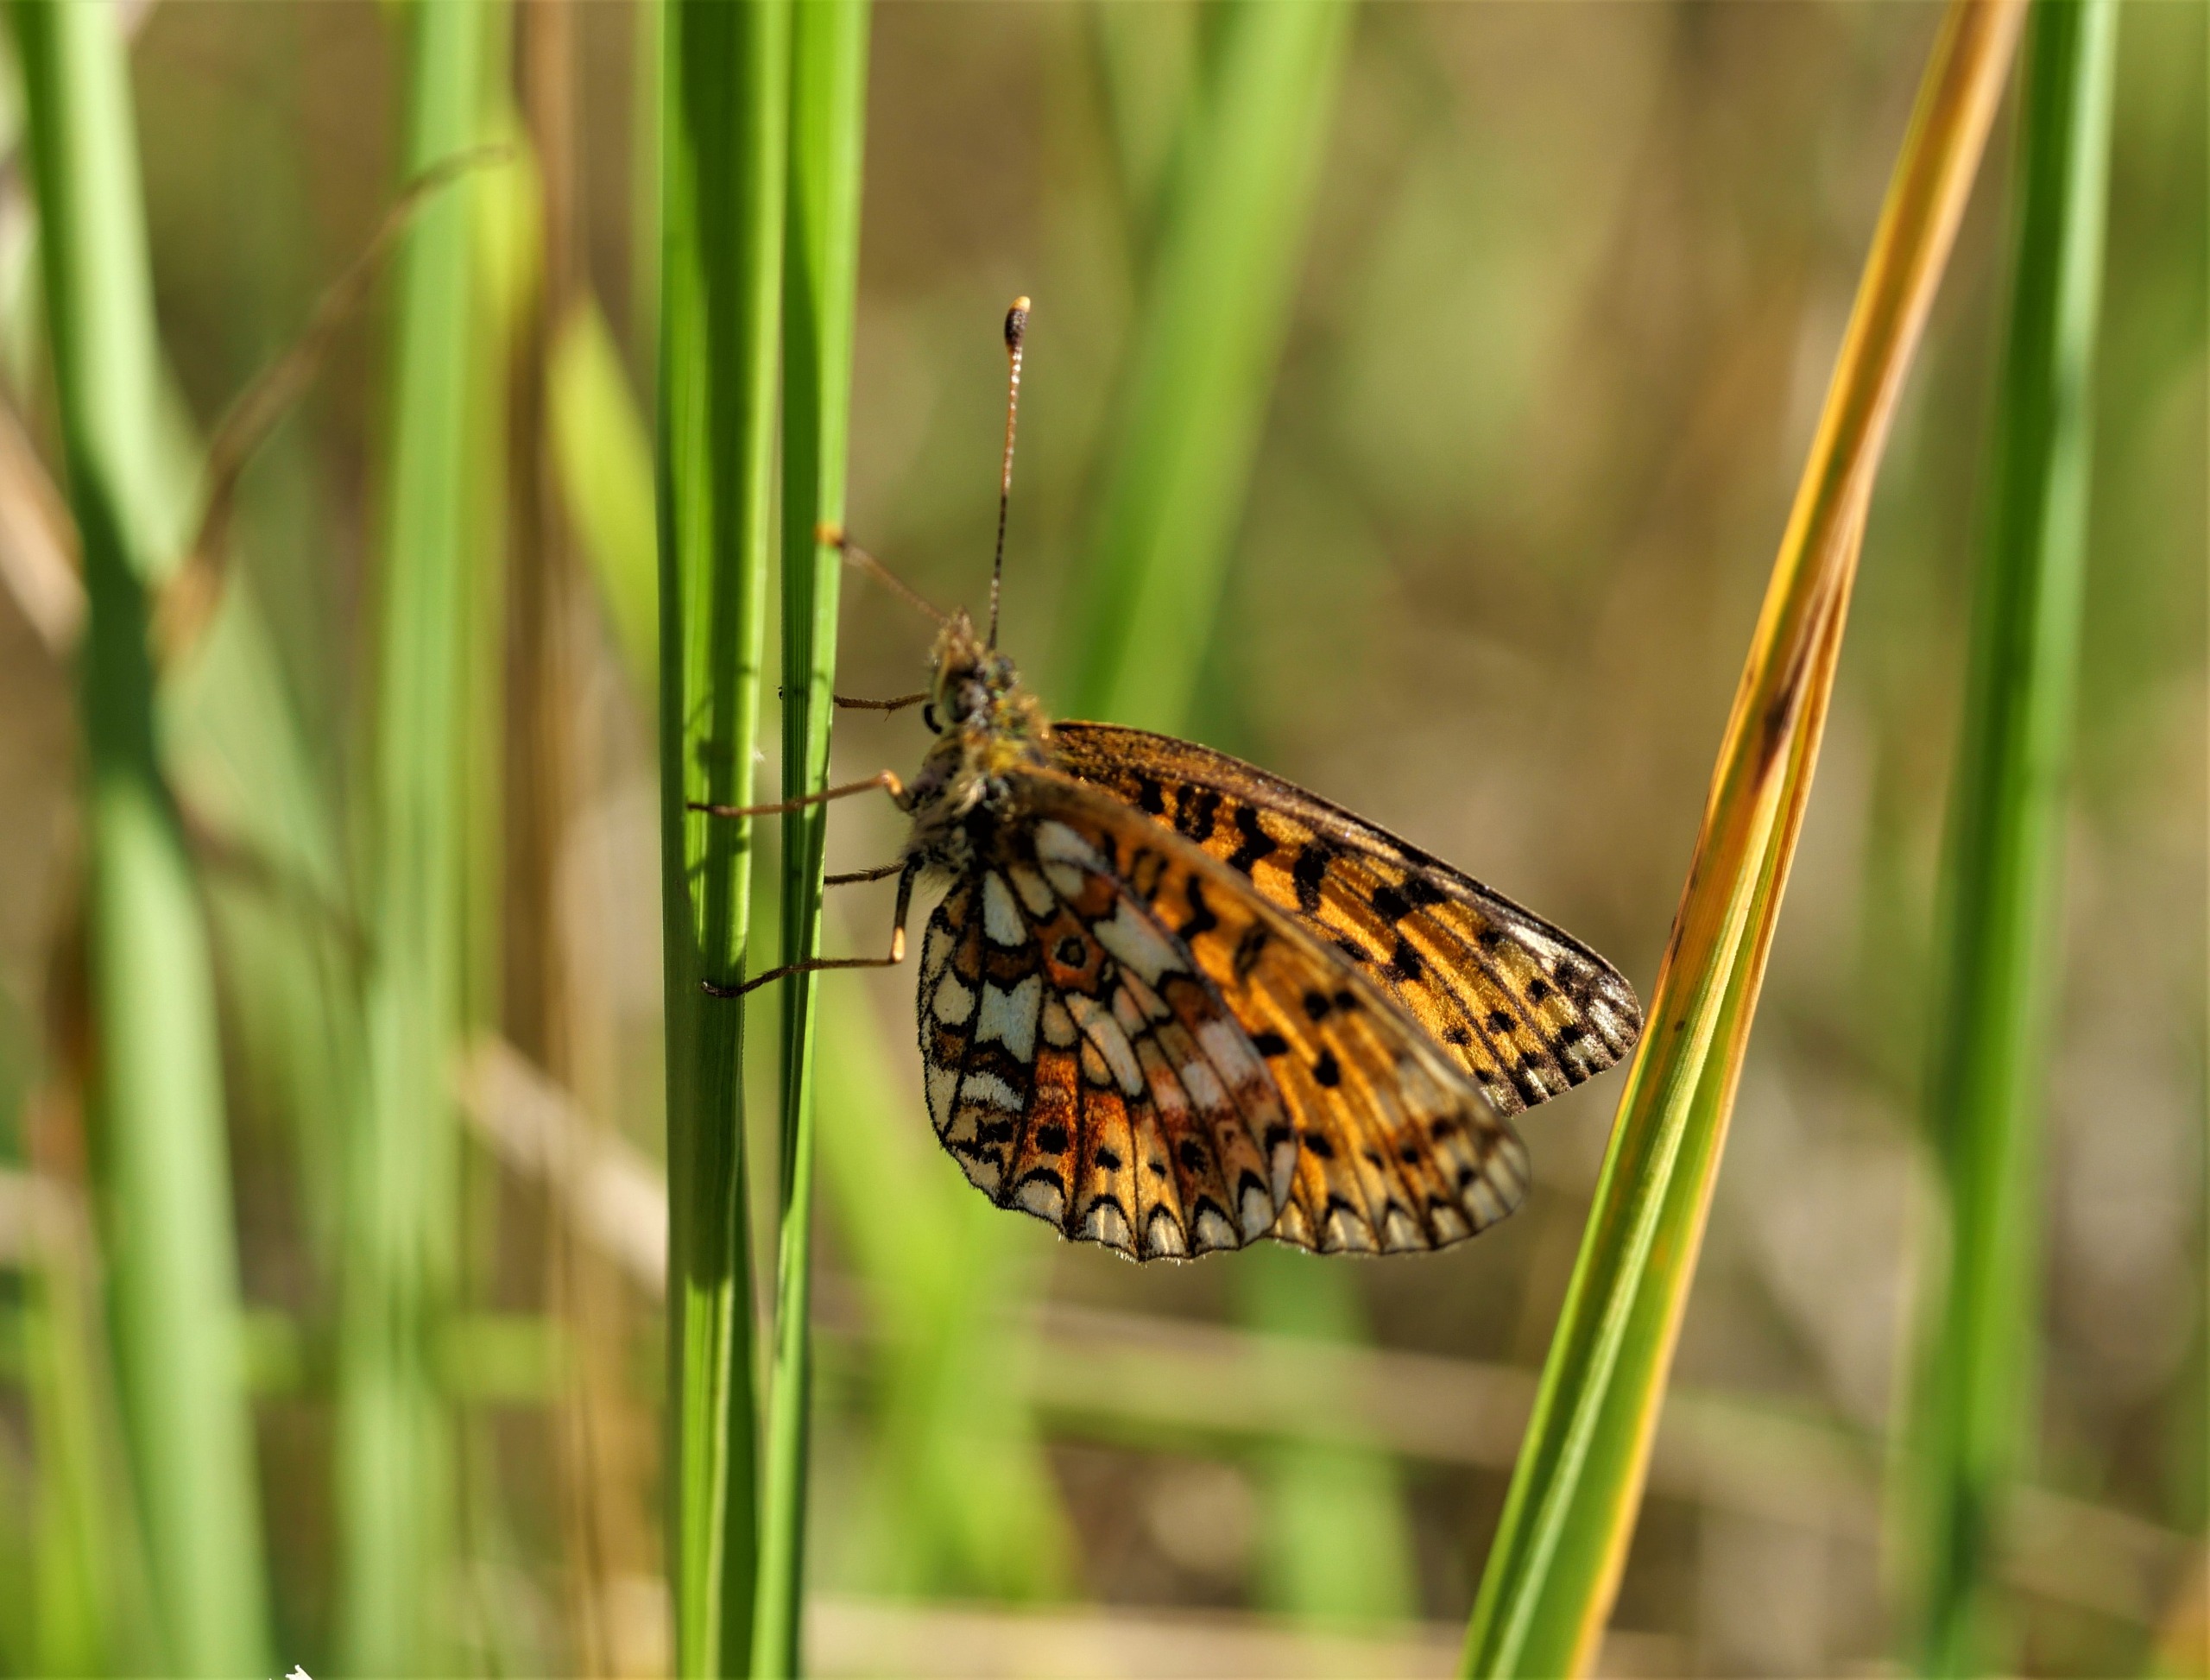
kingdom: Animalia
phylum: Arthropoda
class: Insecta
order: Lepidoptera
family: Nymphalidae
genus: Boloria
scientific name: Boloria selene
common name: Brunlig perlemorsommerfugl
